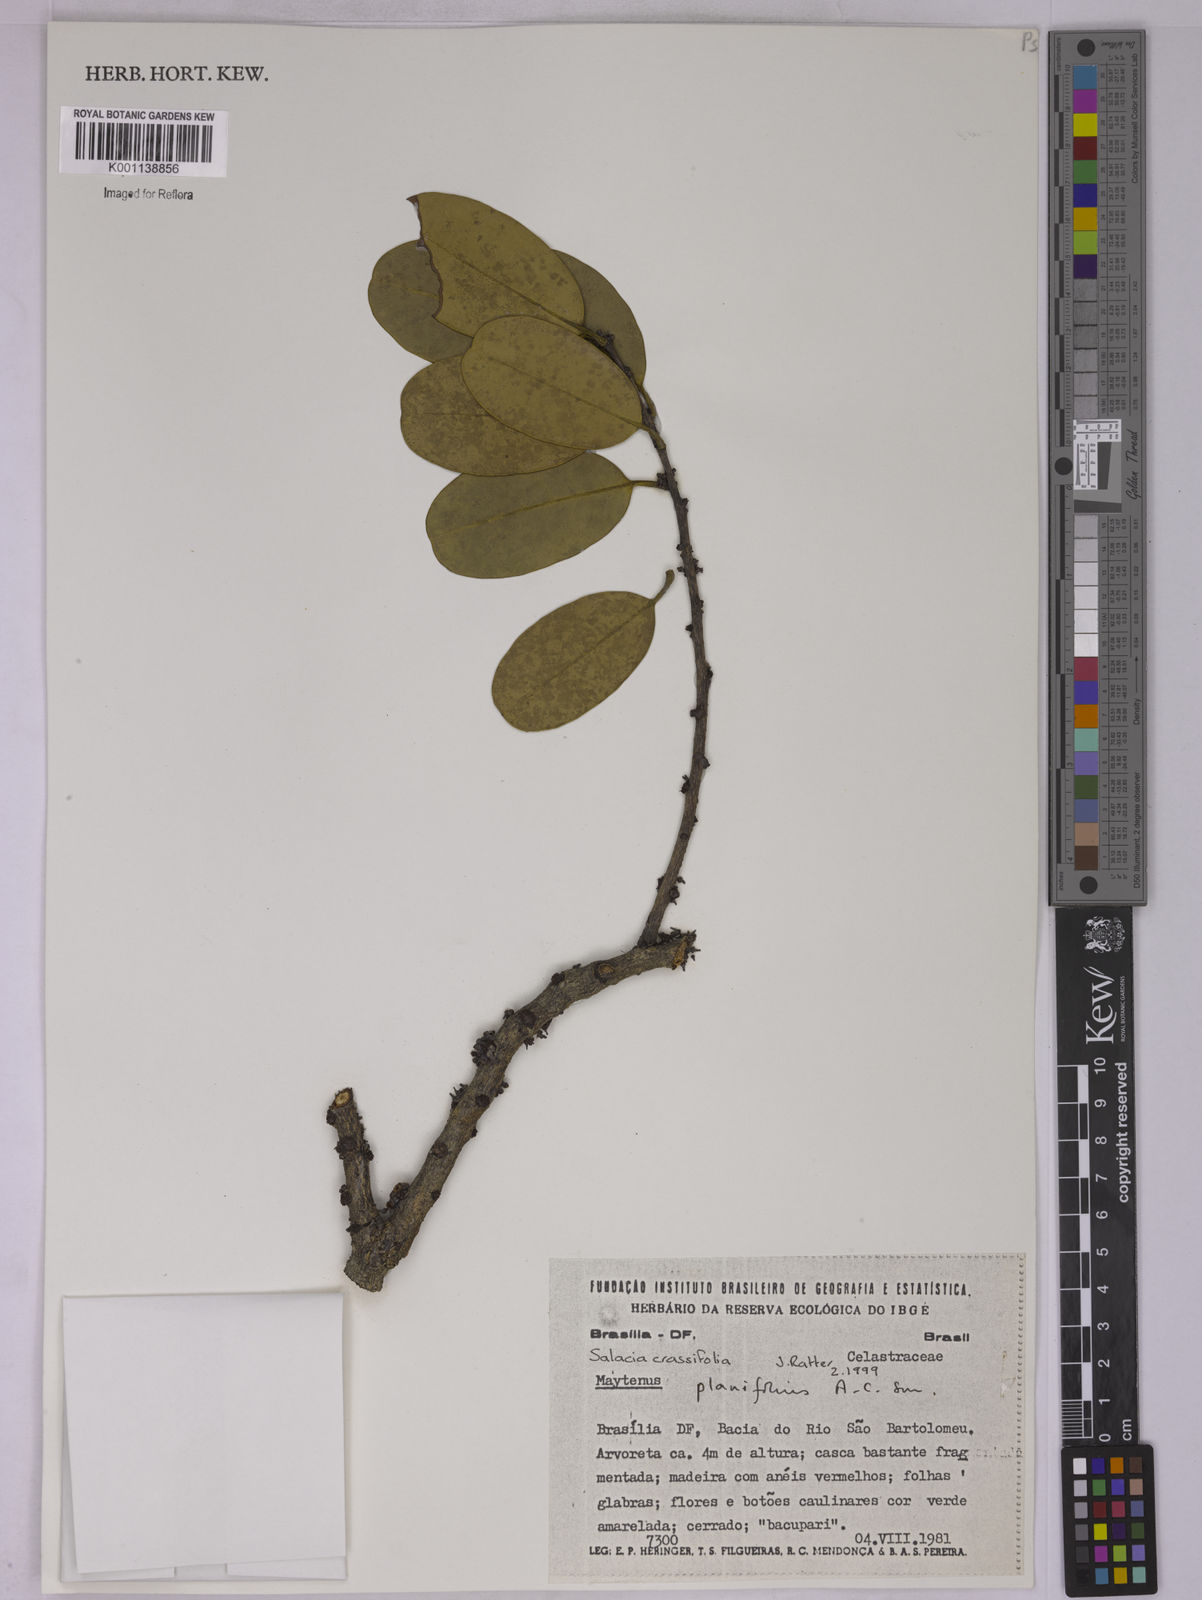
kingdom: Plantae
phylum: Tracheophyta
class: Magnoliopsida
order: Celastrales
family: Celastraceae
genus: Salacia
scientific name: Salacia crassifolia
